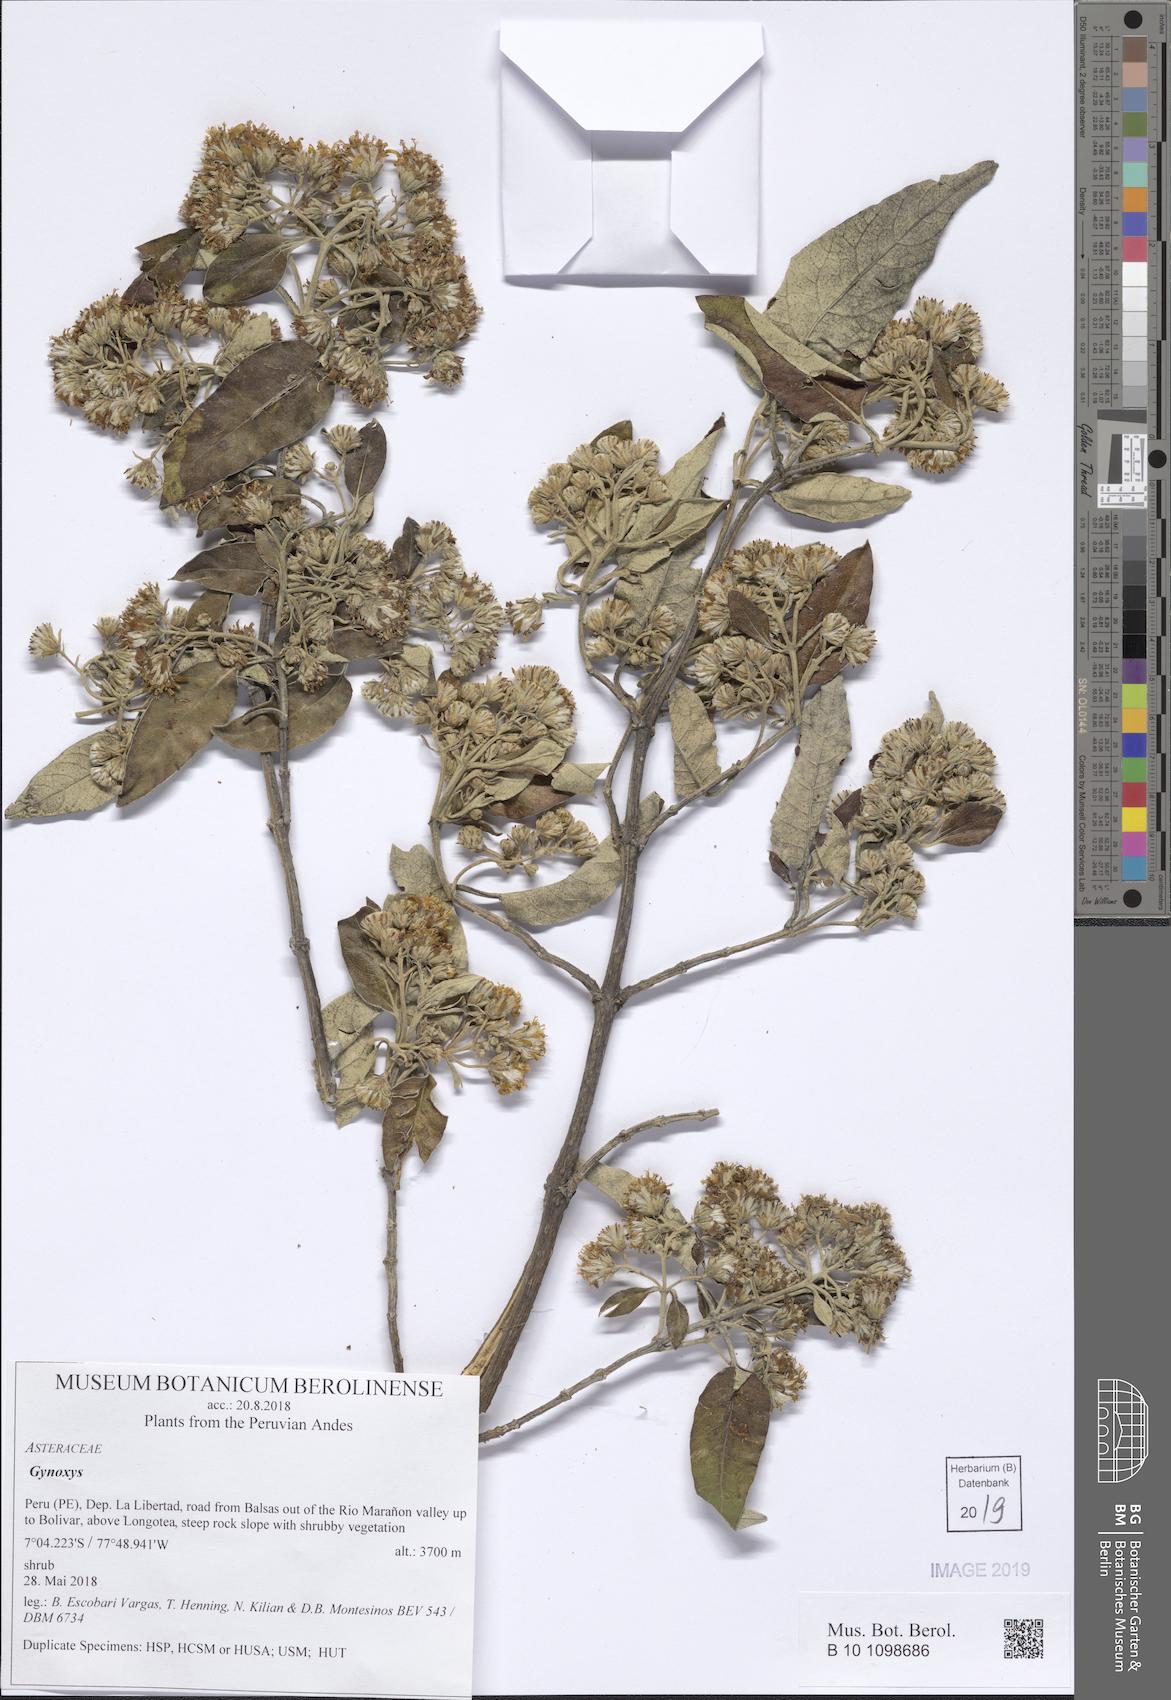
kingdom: Plantae
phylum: Tracheophyta
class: Magnoliopsida
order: Asterales
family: Asteraceae
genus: Gynoxys
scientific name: Gynoxys
